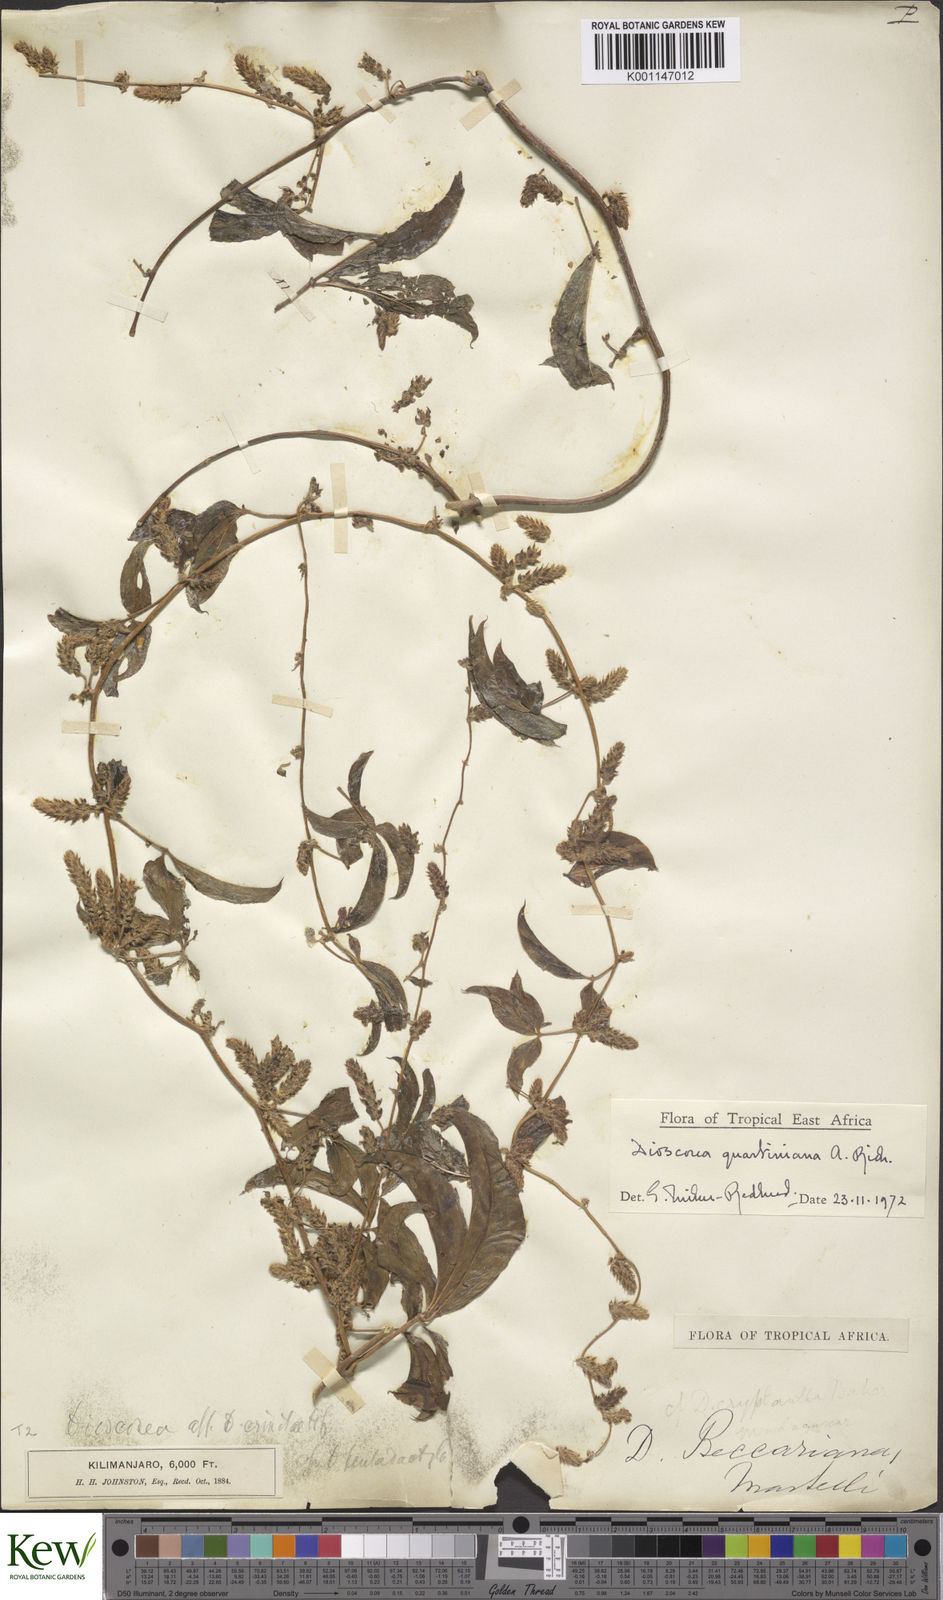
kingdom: Plantae
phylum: Tracheophyta
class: Liliopsida
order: Dioscoreales
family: Dioscoreaceae
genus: Dioscorea
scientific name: Dioscorea quartiniana
